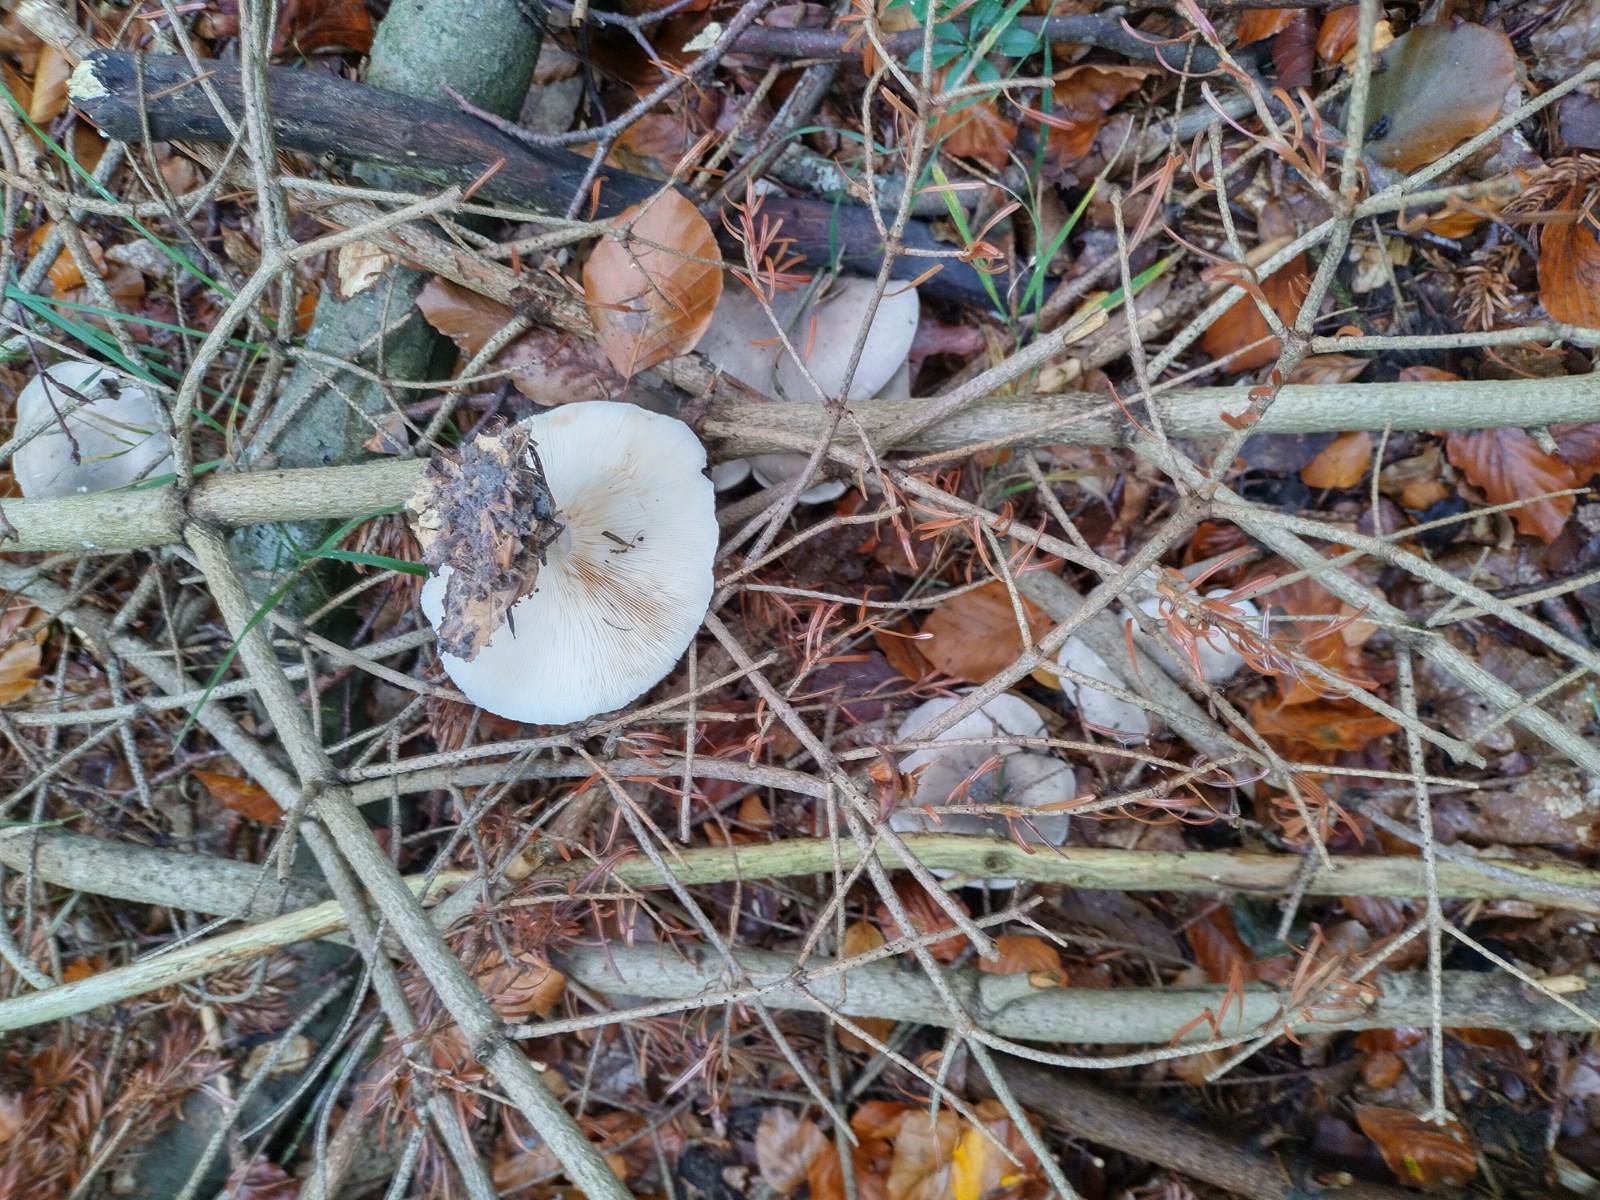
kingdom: Fungi
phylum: Basidiomycota
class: Agaricomycetes
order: Agaricales
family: Tricholomataceae
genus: Clitocybe
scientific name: Clitocybe nebularis
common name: tåge-tragthat
